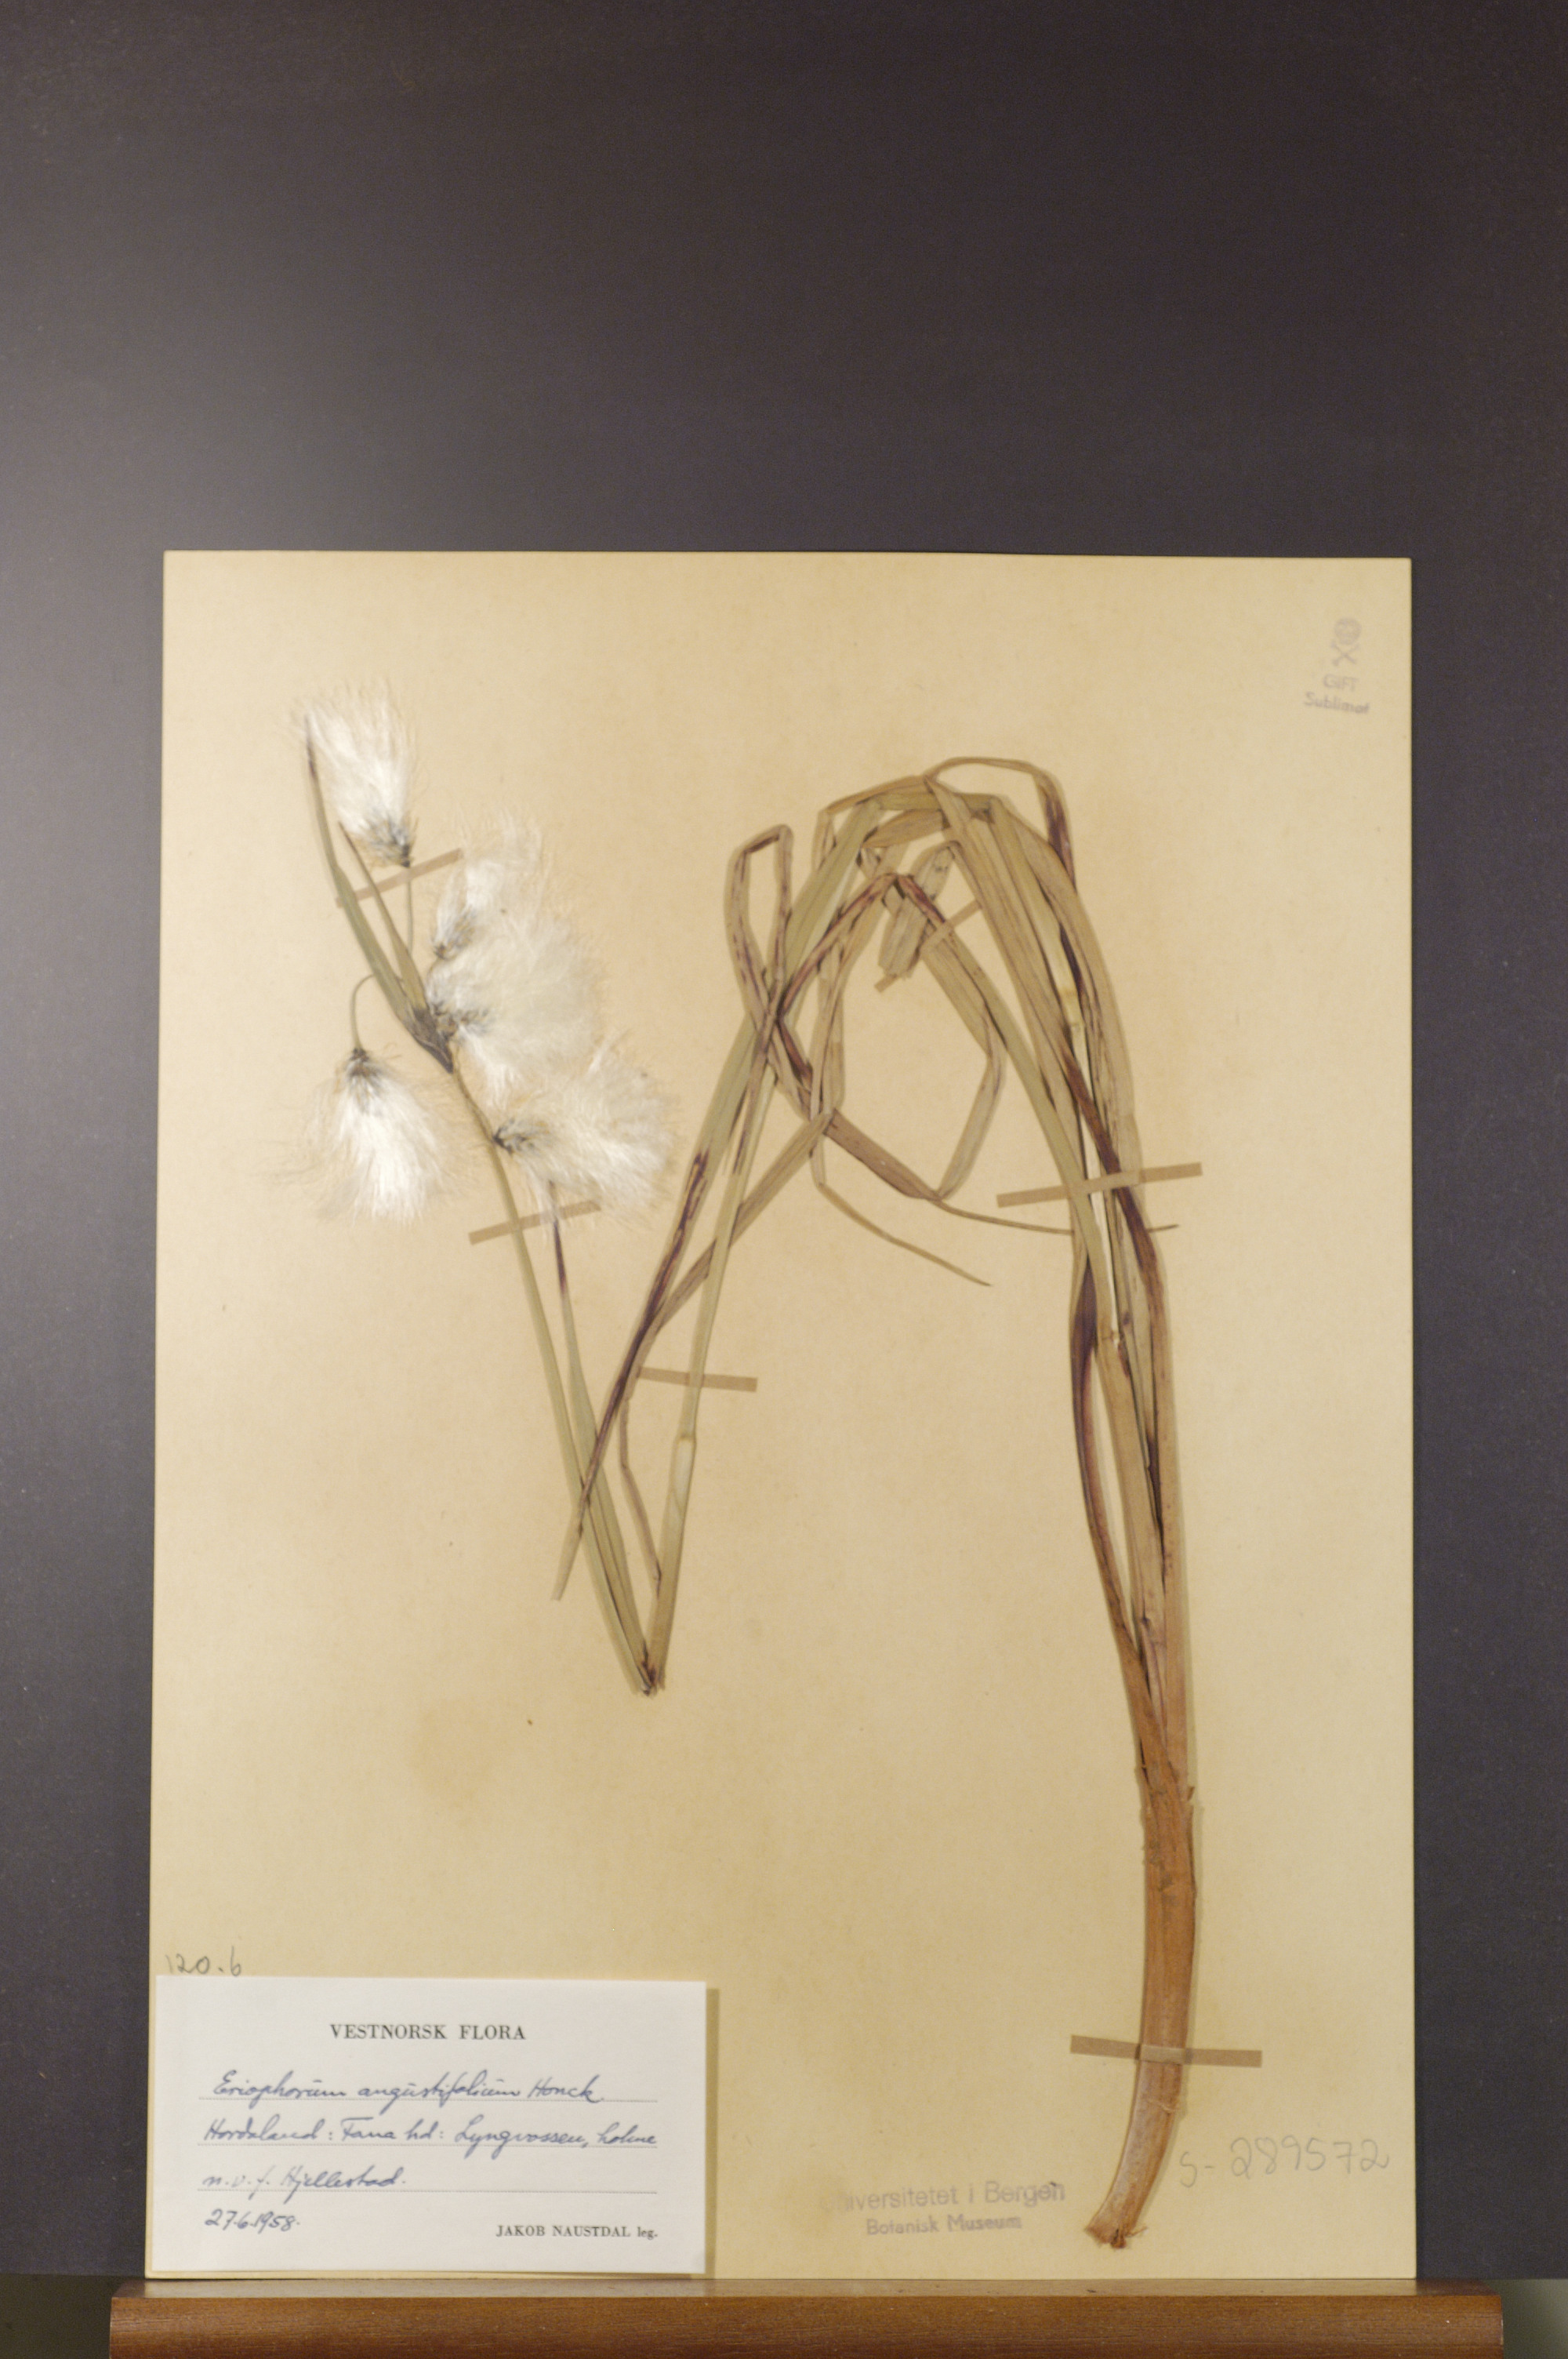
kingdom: Plantae
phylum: Tracheophyta
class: Liliopsida
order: Poales
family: Cyperaceae
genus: Eriophorum
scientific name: Eriophorum angustifolium
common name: Common cottongrass
